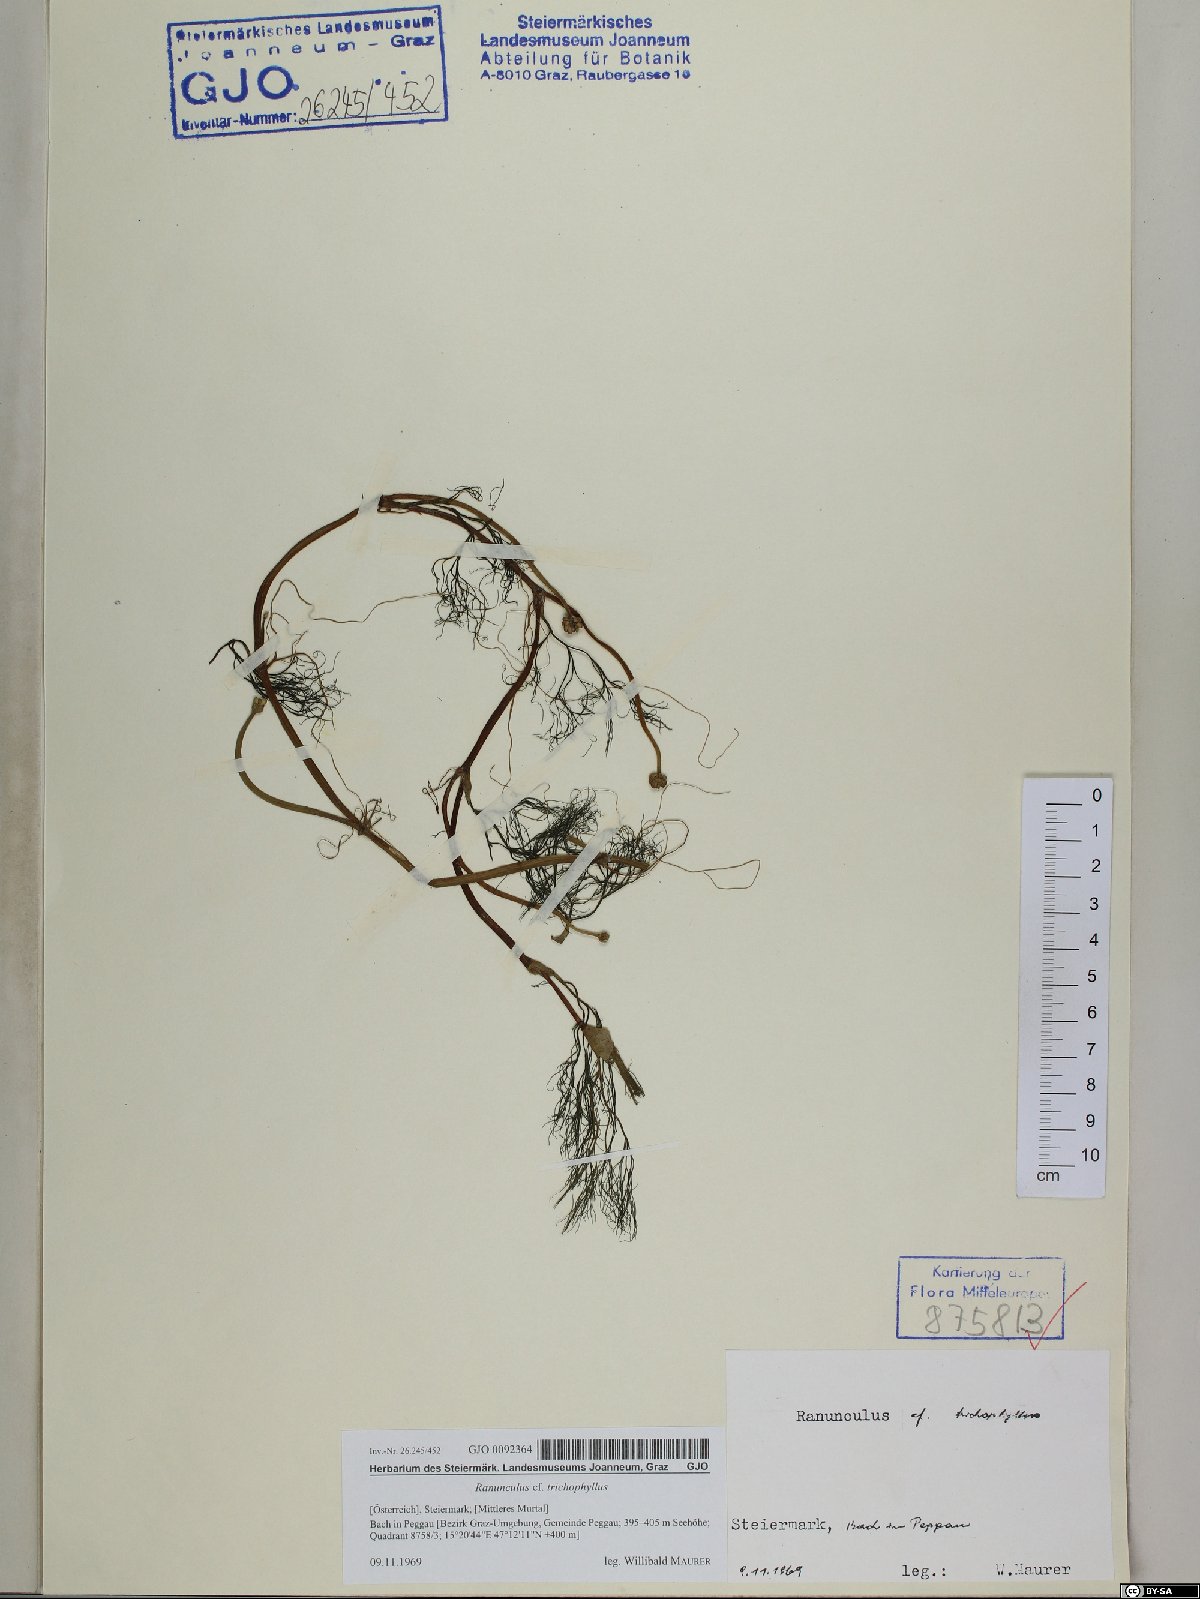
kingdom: Plantae
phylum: Tracheophyta
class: Magnoliopsida
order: Ranunculales
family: Ranunculaceae
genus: Ranunculus
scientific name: Ranunculus trichophyllus
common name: Thread-leaved water-crowfoot
